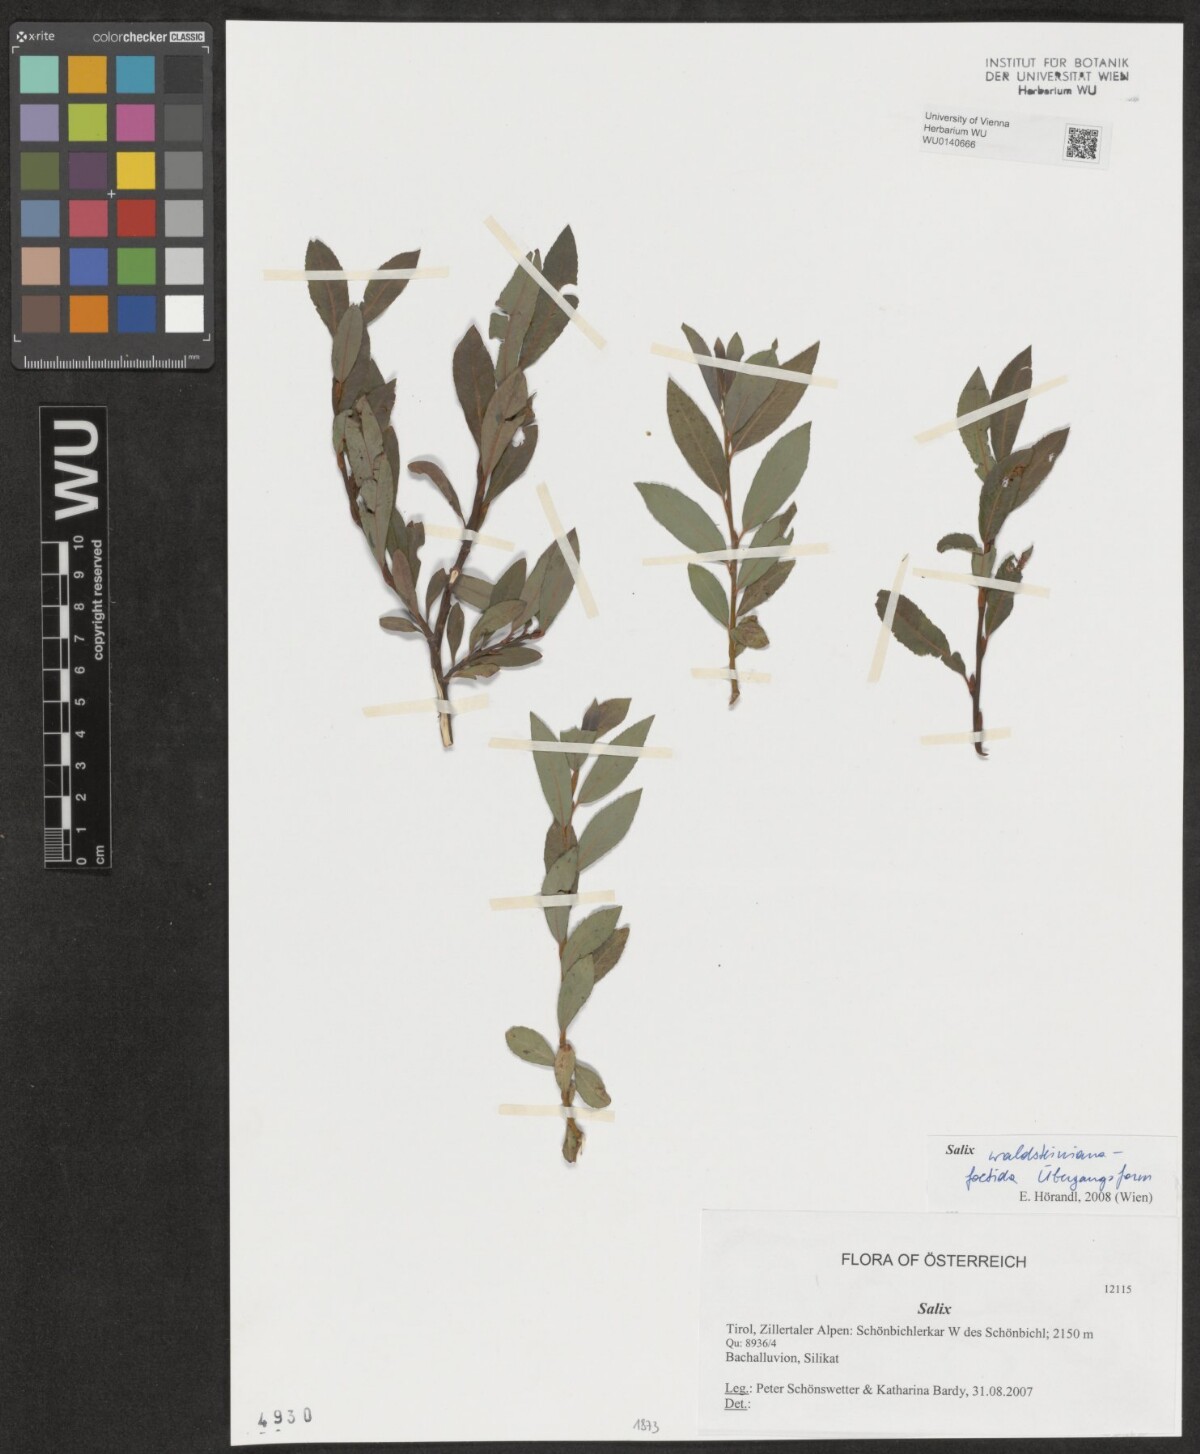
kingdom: Plantae
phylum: Tracheophyta
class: Magnoliopsida
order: Malpighiales
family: Salicaceae
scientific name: Salicaceae
